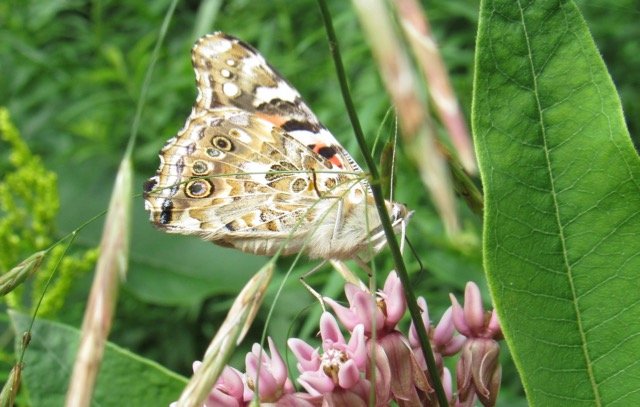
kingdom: Animalia
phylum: Arthropoda
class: Insecta
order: Lepidoptera
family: Nymphalidae
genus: Vanessa
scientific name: Vanessa cardui
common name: Painted Lady
